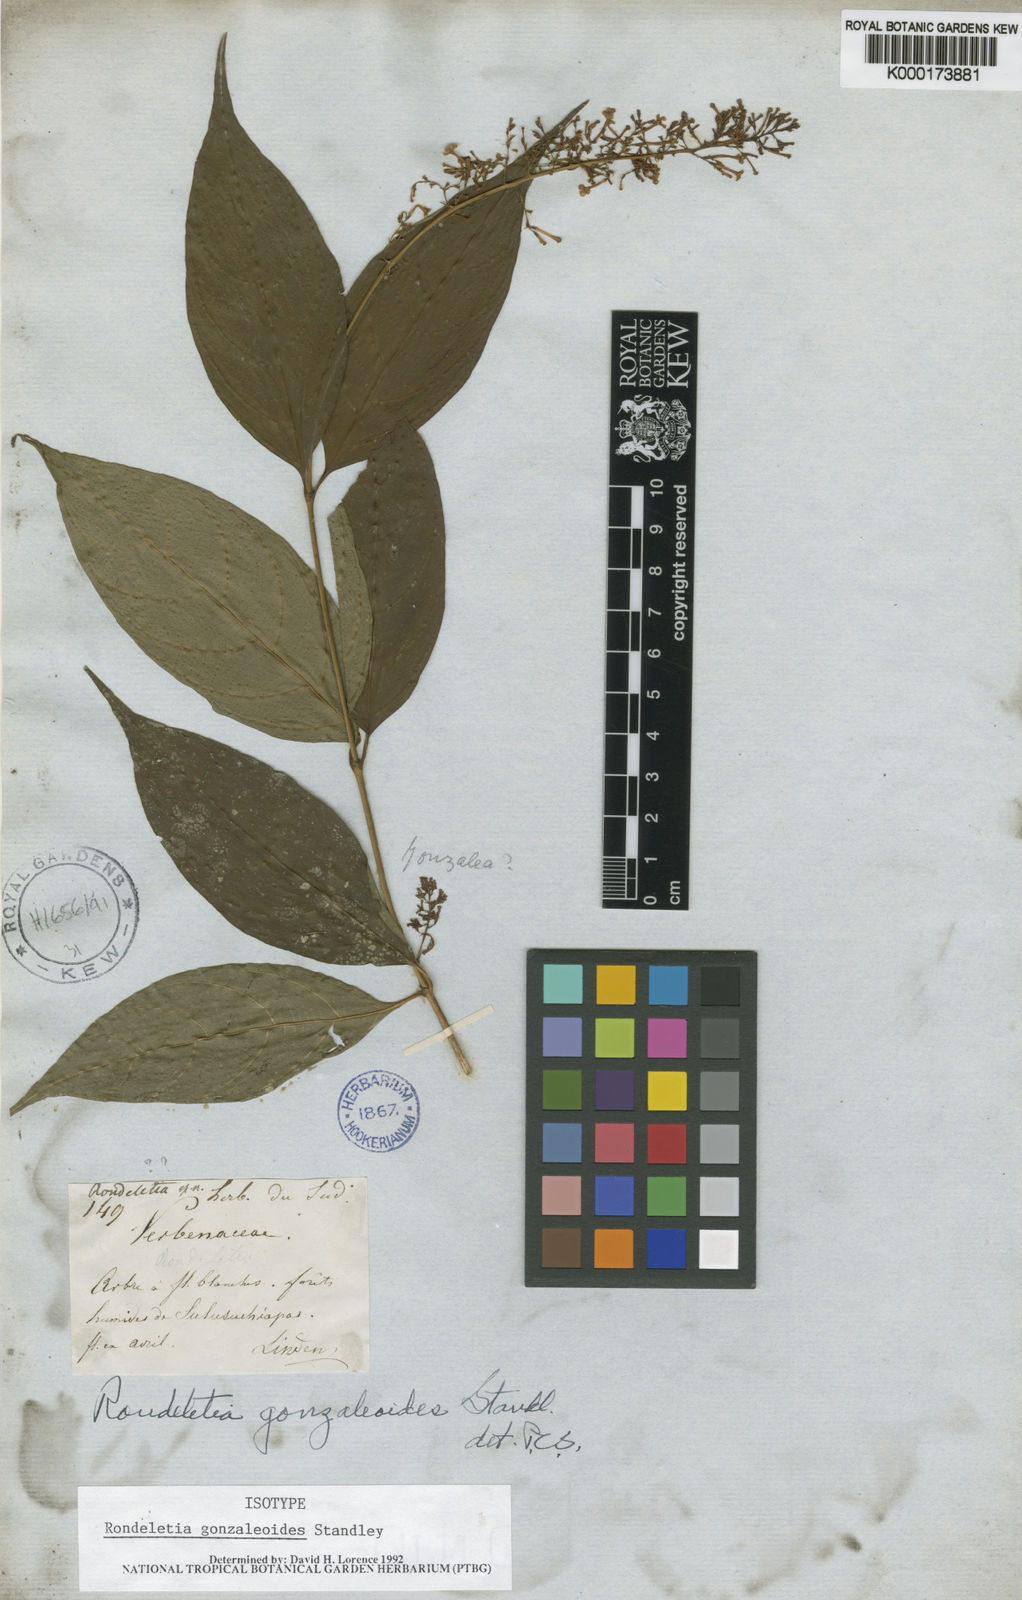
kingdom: Plantae
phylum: Tracheophyta
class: Magnoliopsida
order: Gentianales
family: Rubiaceae
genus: Arachnothryx
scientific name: Arachnothryx gonzaleoides
